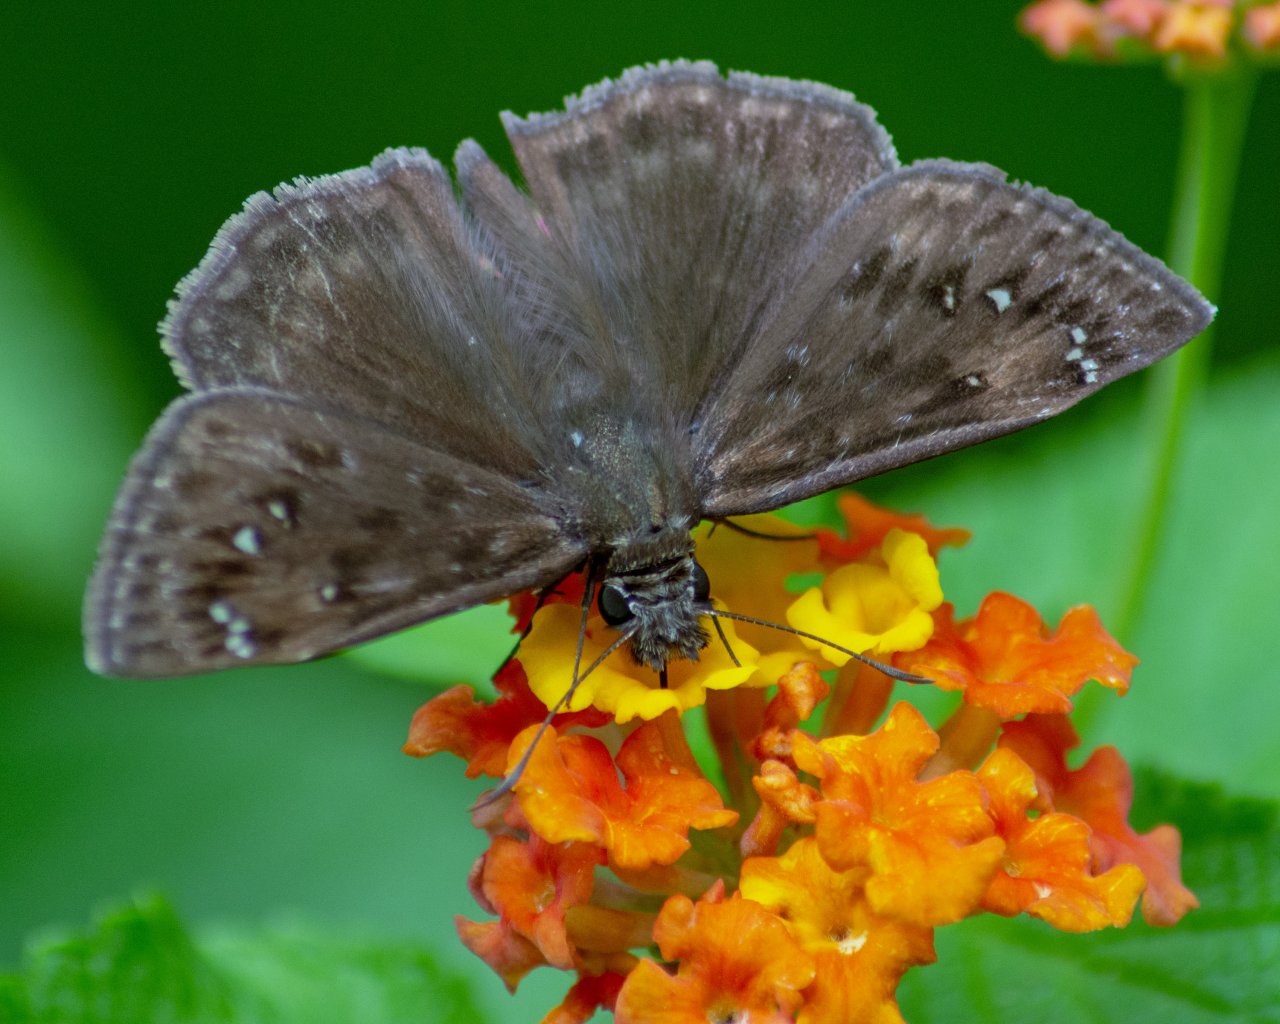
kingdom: Animalia
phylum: Arthropoda
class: Insecta
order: Lepidoptera
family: Hesperiidae
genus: Gesta
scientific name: Gesta
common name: Horace's Duskywing
